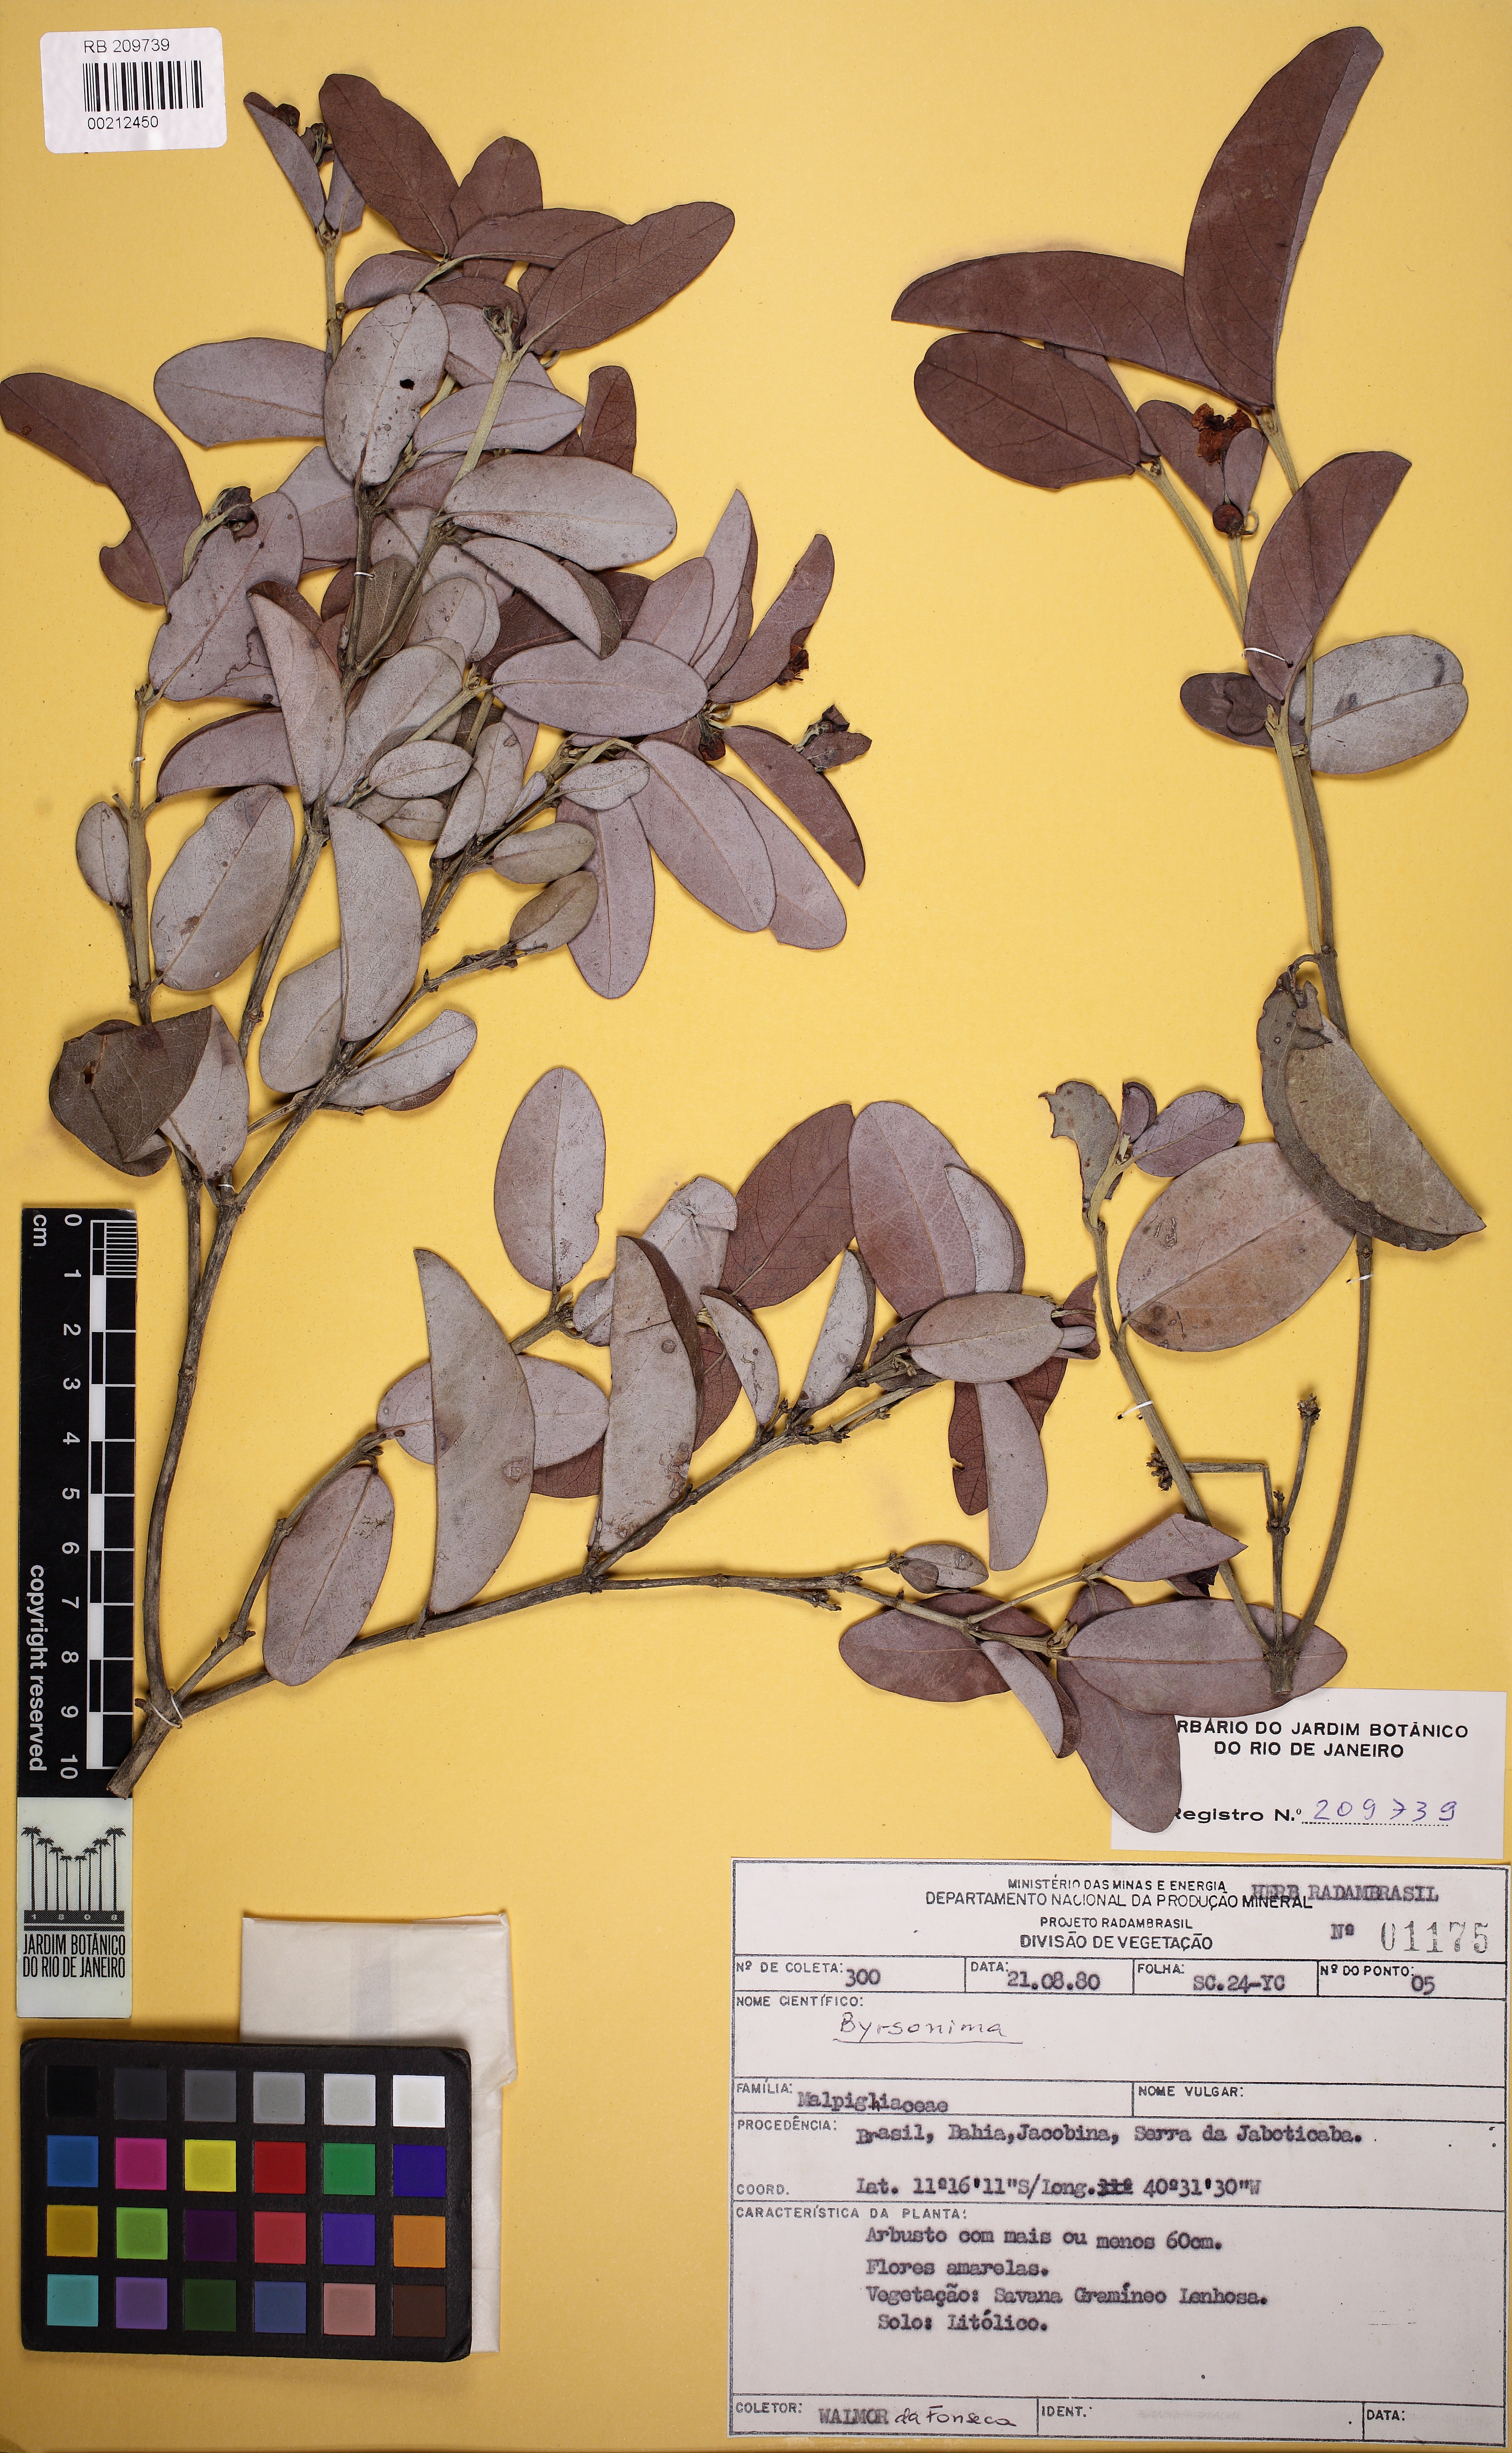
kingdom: Plantae
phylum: Tracheophyta
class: Magnoliopsida
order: Malpighiales
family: Malpighiaceae
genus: Stigmaphyllon
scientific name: Stigmaphyllon paralias
